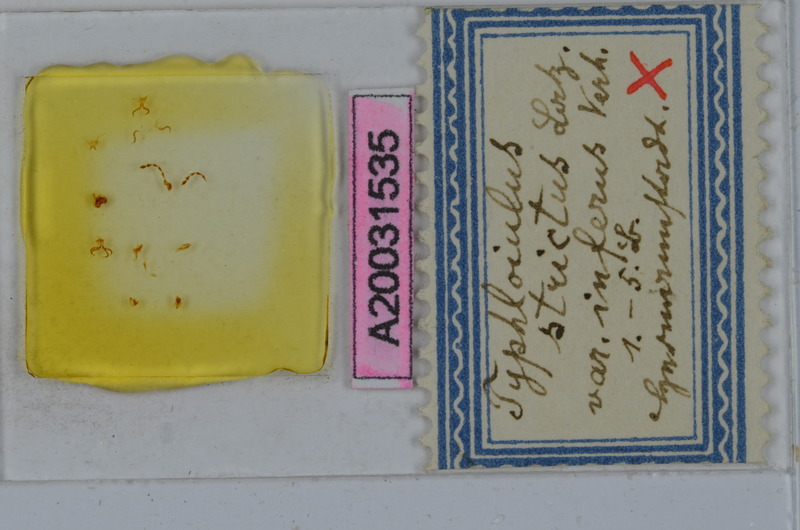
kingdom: Animalia
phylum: Arthropoda
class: Diplopoda
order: Julida
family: Julidae
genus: Typhloiulus
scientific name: Typhloiulus strictus
